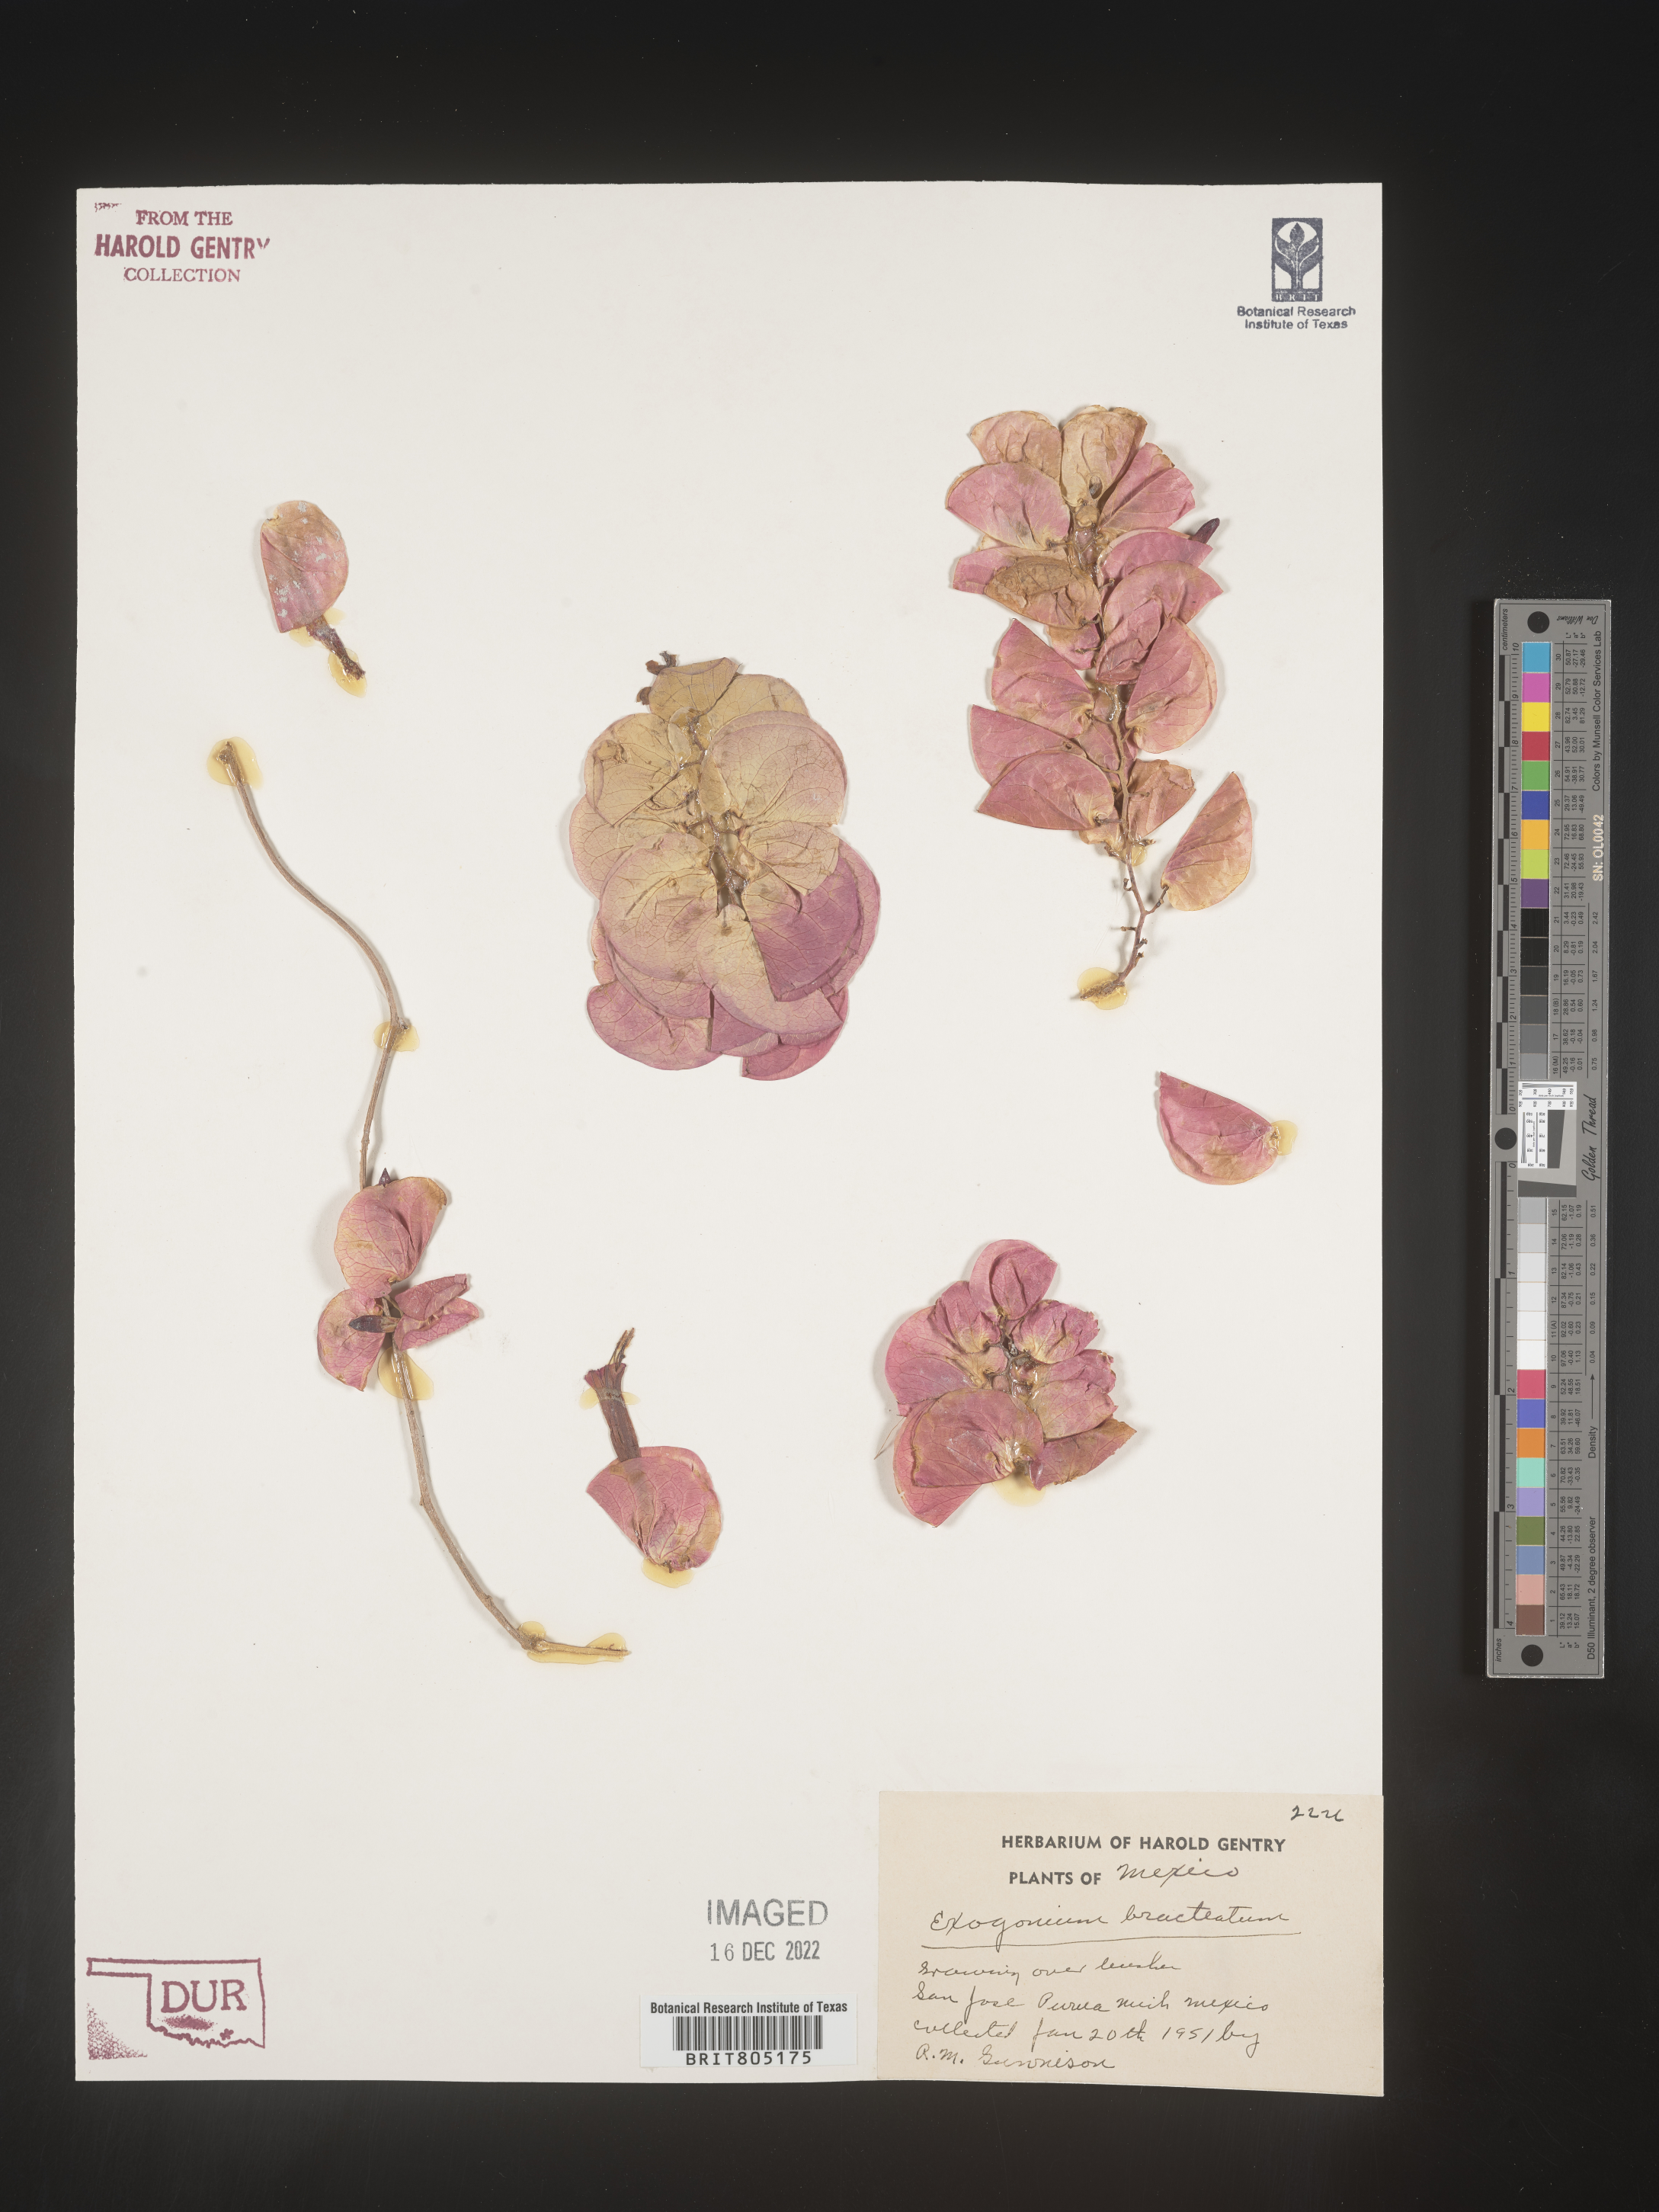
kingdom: Plantae
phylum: Tracheophyta
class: Magnoliopsida
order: Solanales
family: Convolvulaceae
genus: Ipomoea
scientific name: Ipomoea
